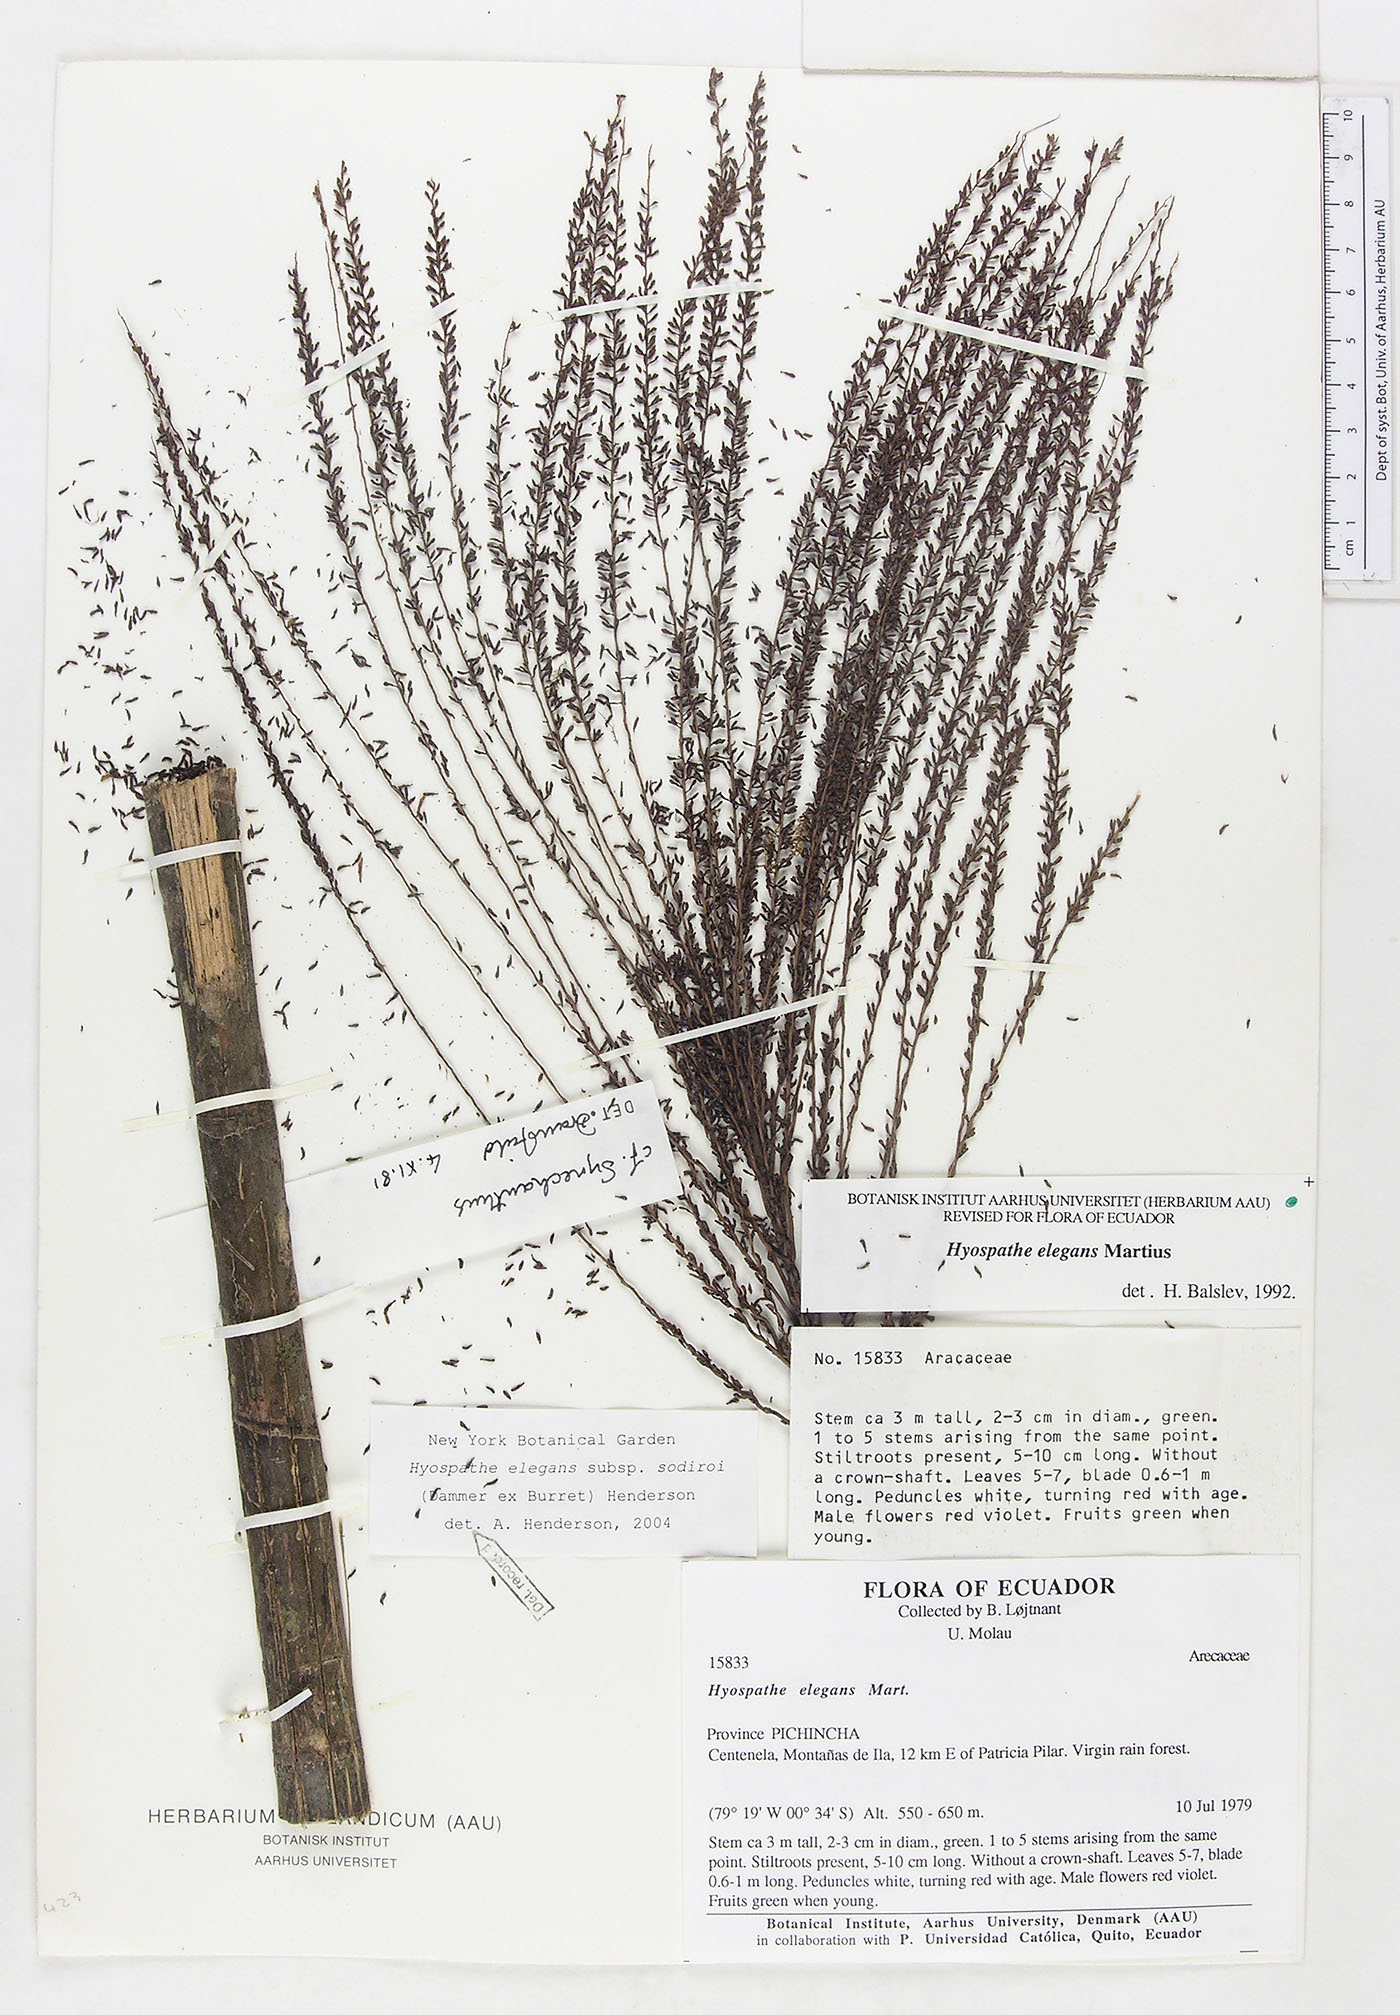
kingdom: Plantae
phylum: Tracheophyta
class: Liliopsida
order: Arecales
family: Arecaceae
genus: Hyospathe
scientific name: Hyospathe elegans
